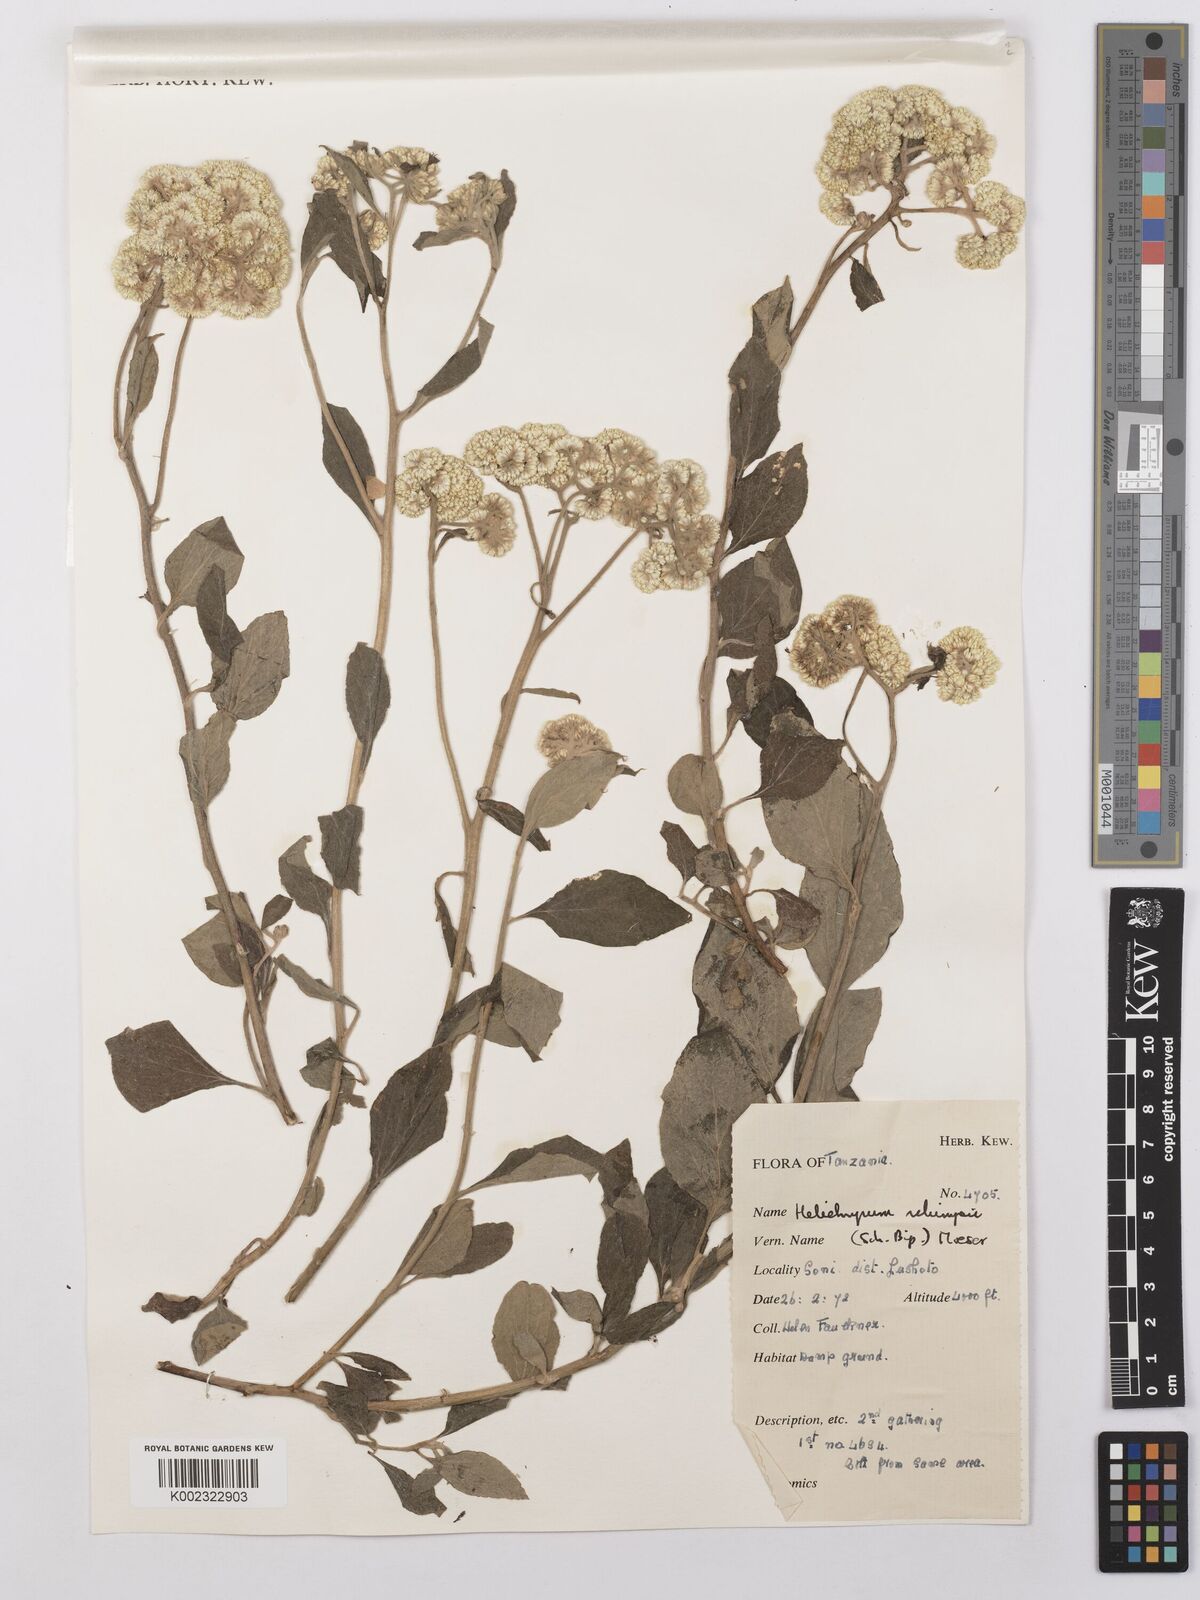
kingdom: Plantae
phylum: Tracheophyta
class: Magnoliopsida
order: Asterales
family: Asteraceae
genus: Helichrysum
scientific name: Helichrysum schimperi
